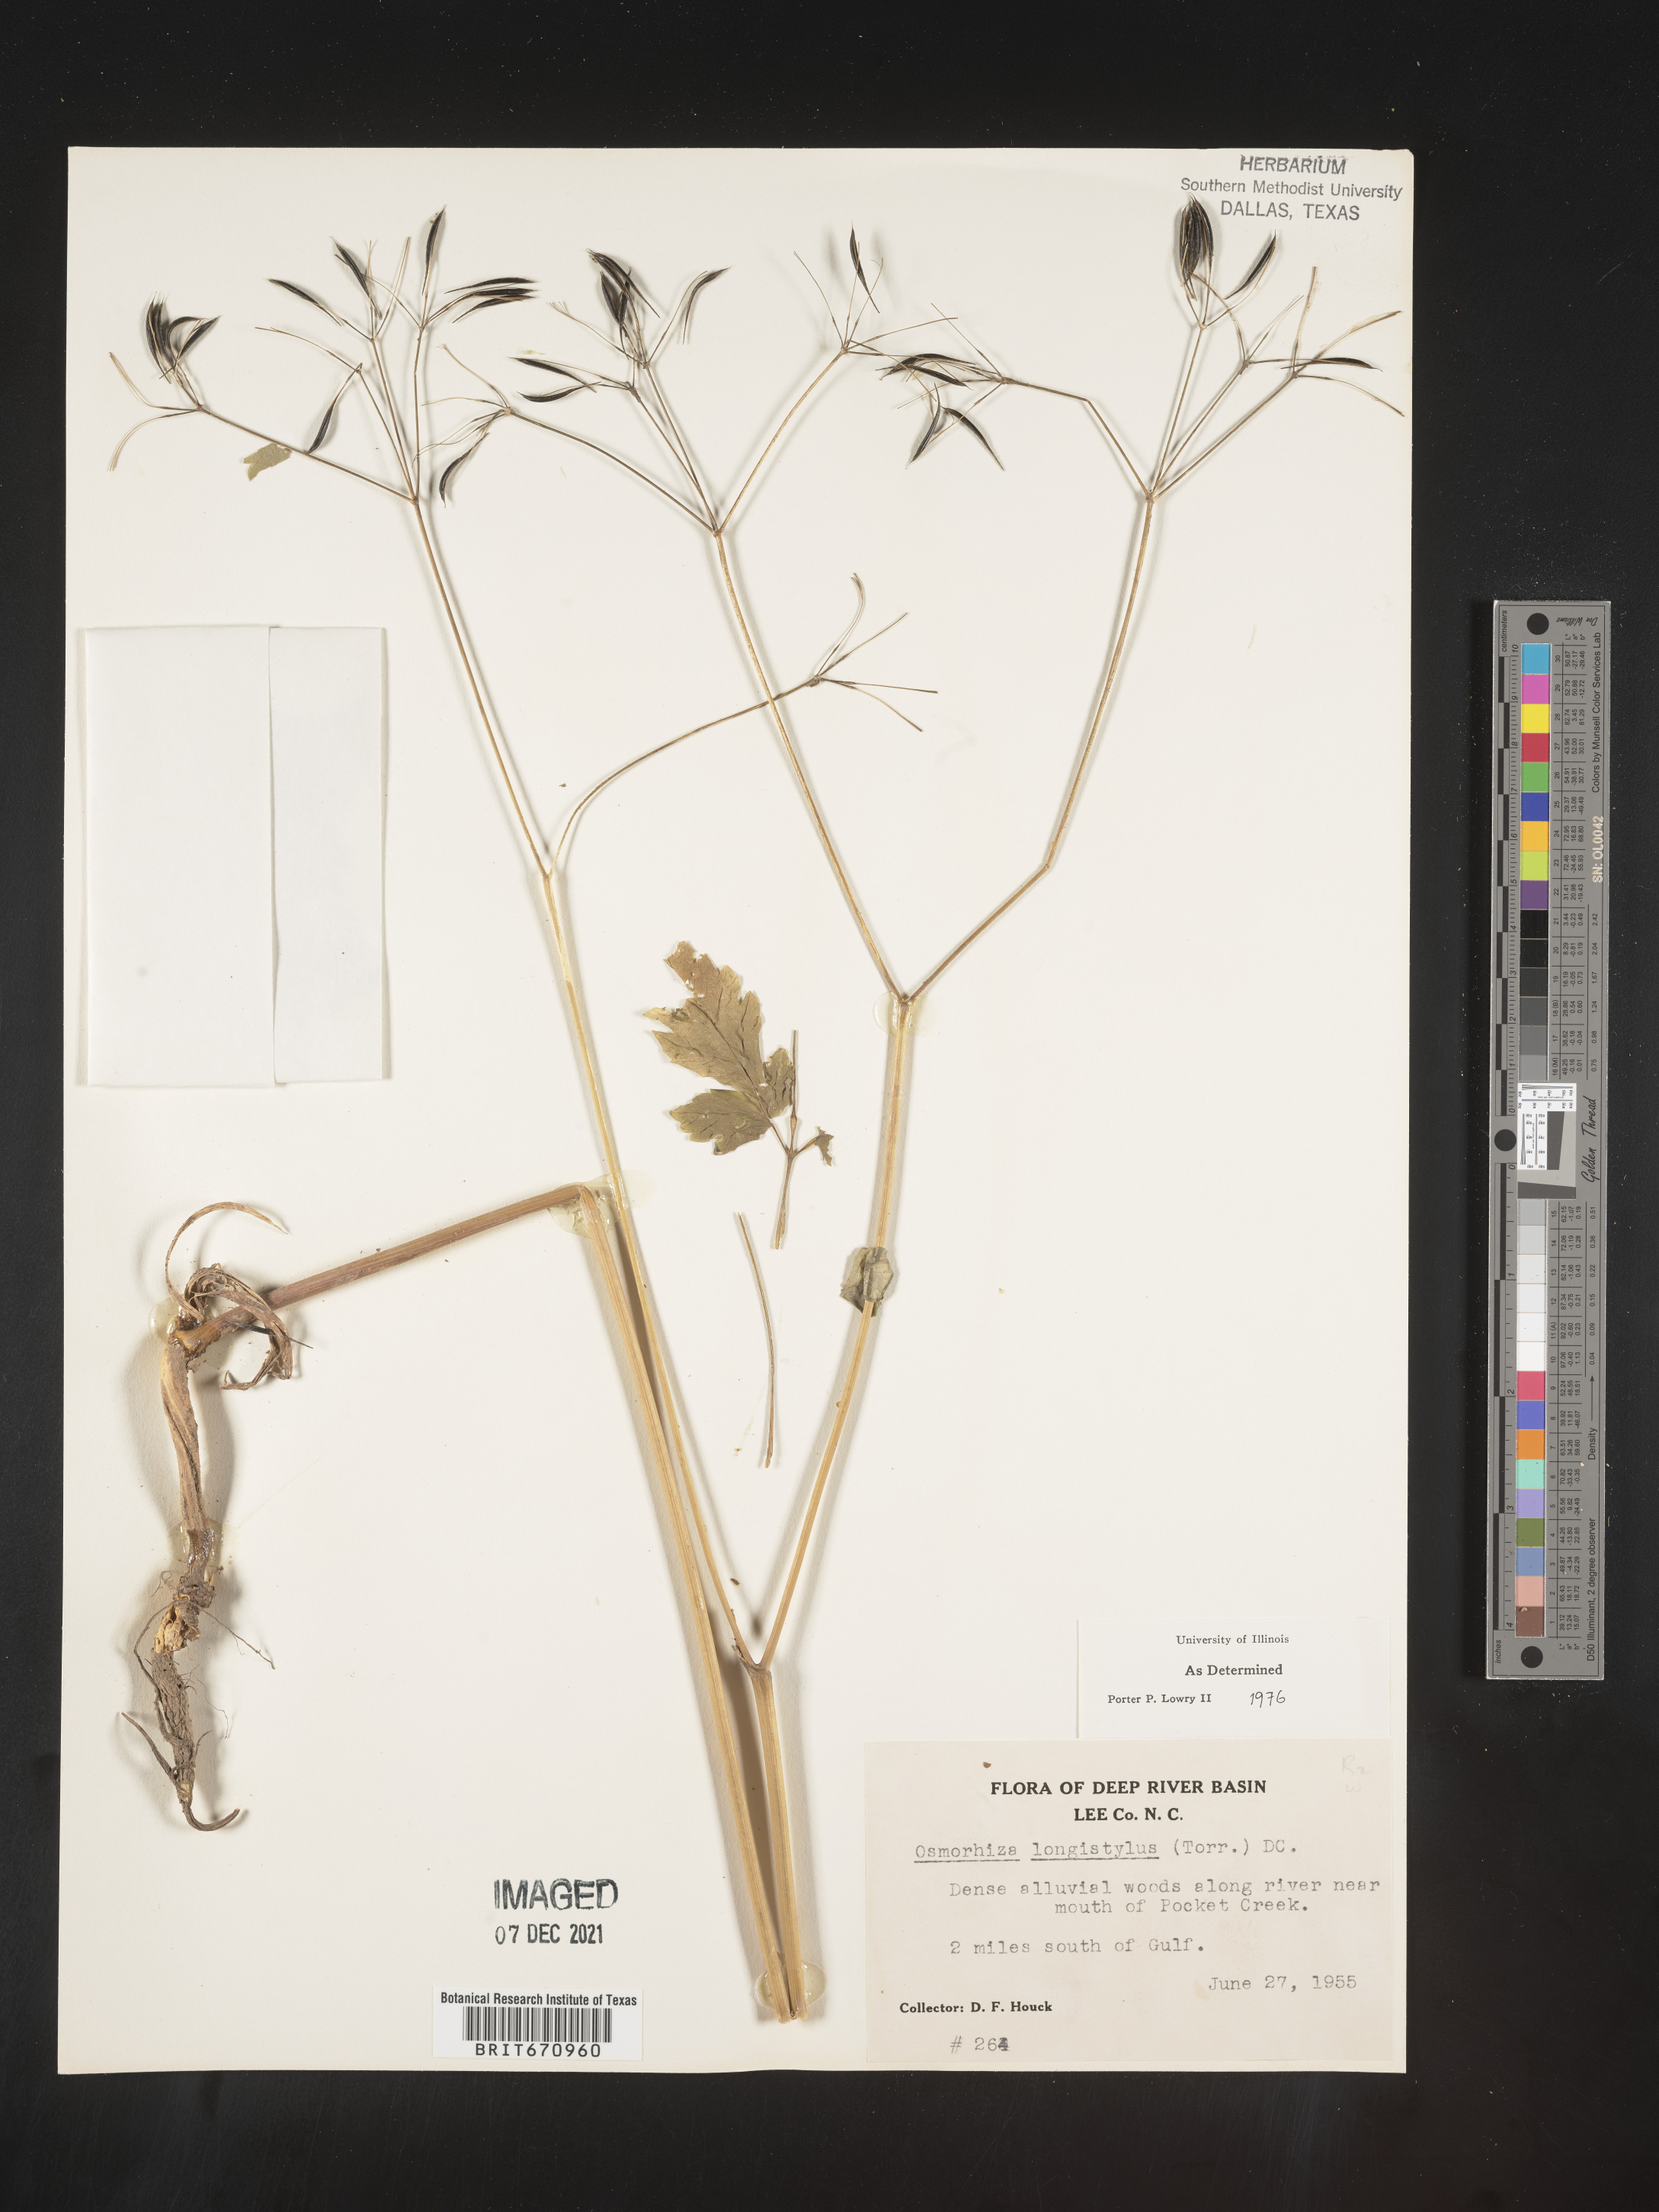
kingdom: Plantae
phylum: Tracheophyta
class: Magnoliopsida
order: Apiales
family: Apiaceae
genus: Osmorhiza
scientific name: Osmorhiza longistylis
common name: Smooth sweet cicely
